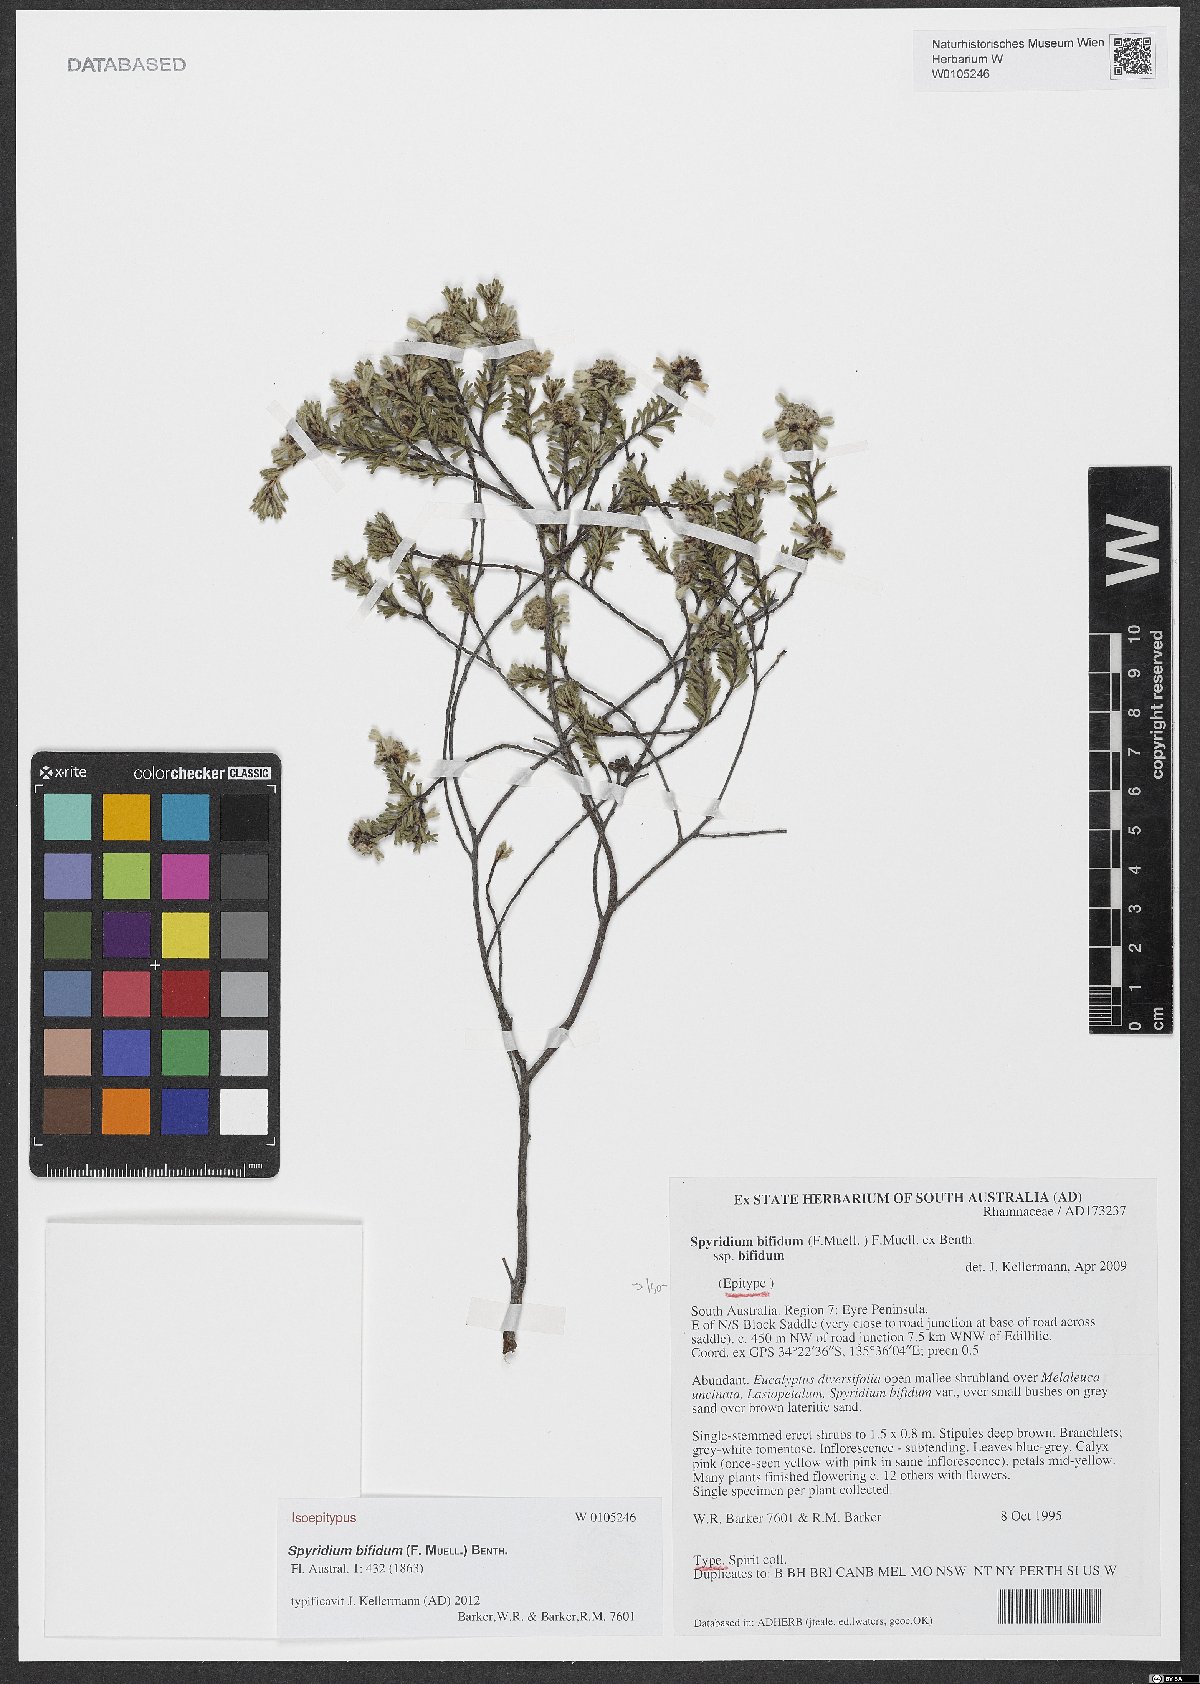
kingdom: Plantae
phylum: Tracheophyta
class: Magnoliopsida
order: Rosales
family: Rhamnaceae
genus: Spyridium
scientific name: Spyridium bifidum
